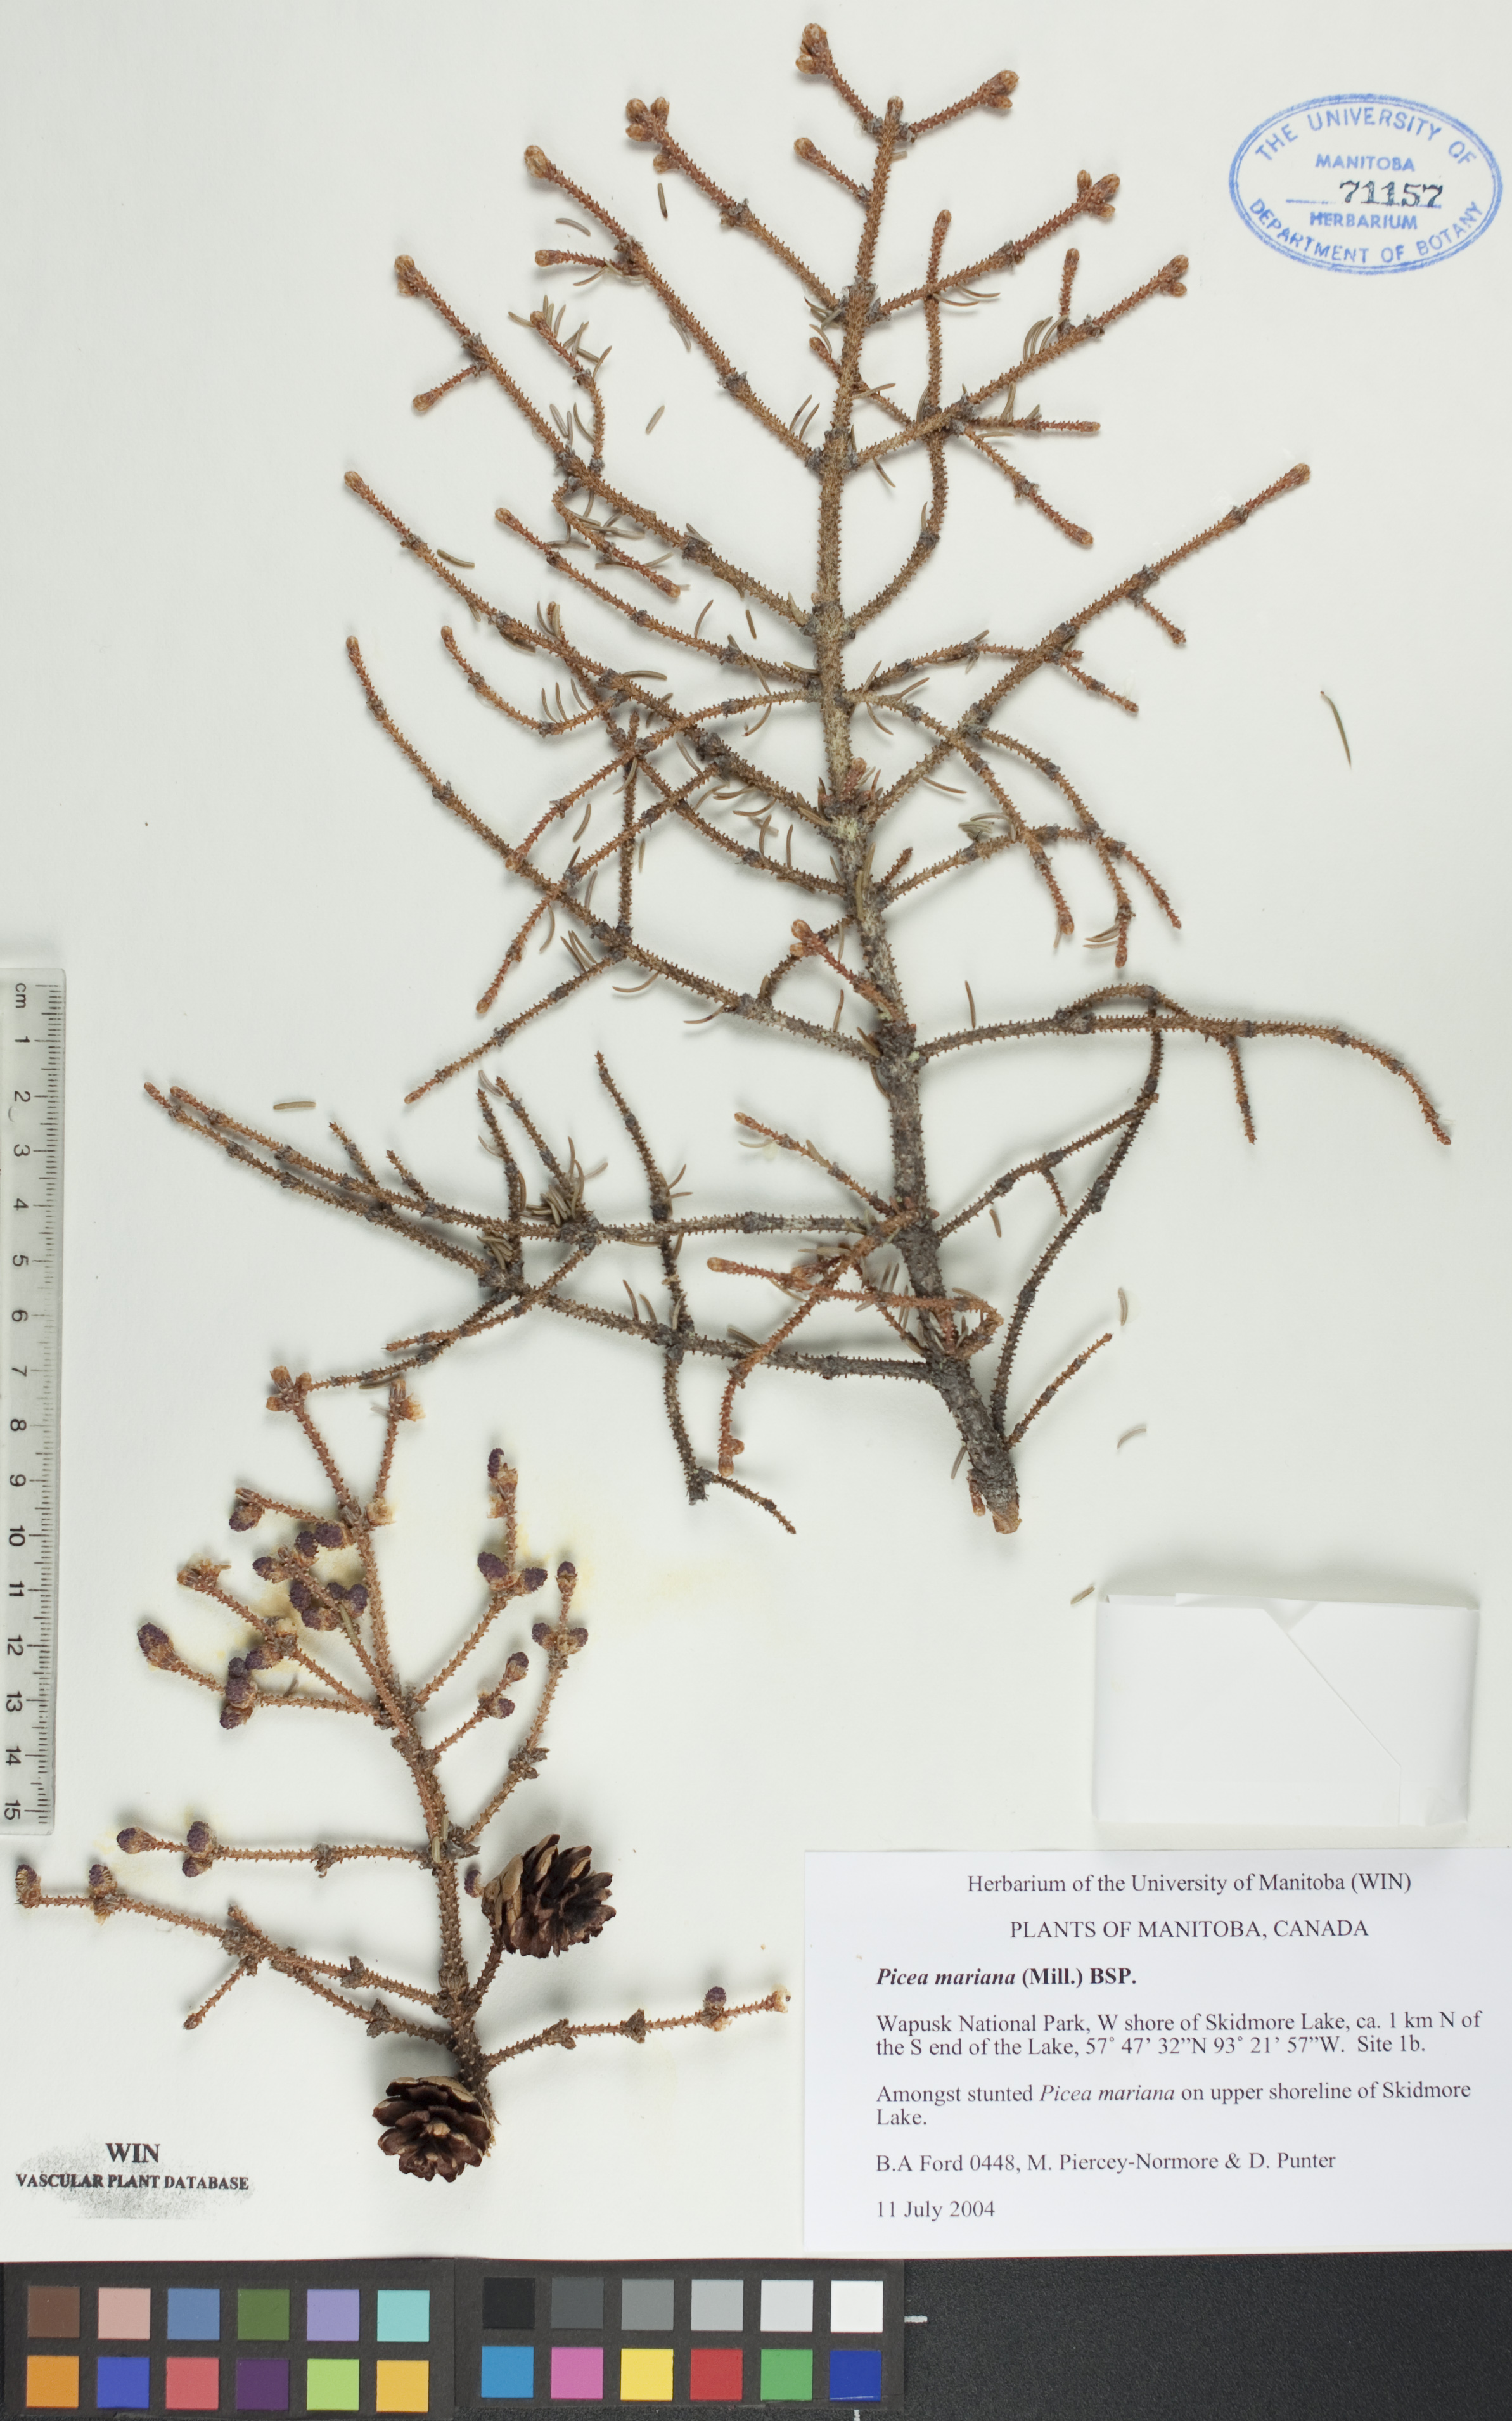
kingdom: Plantae
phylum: Tracheophyta
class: Pinopsida
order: Pinales
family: Pinaceae
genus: Picea
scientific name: Picea mariana
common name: Black spruce
